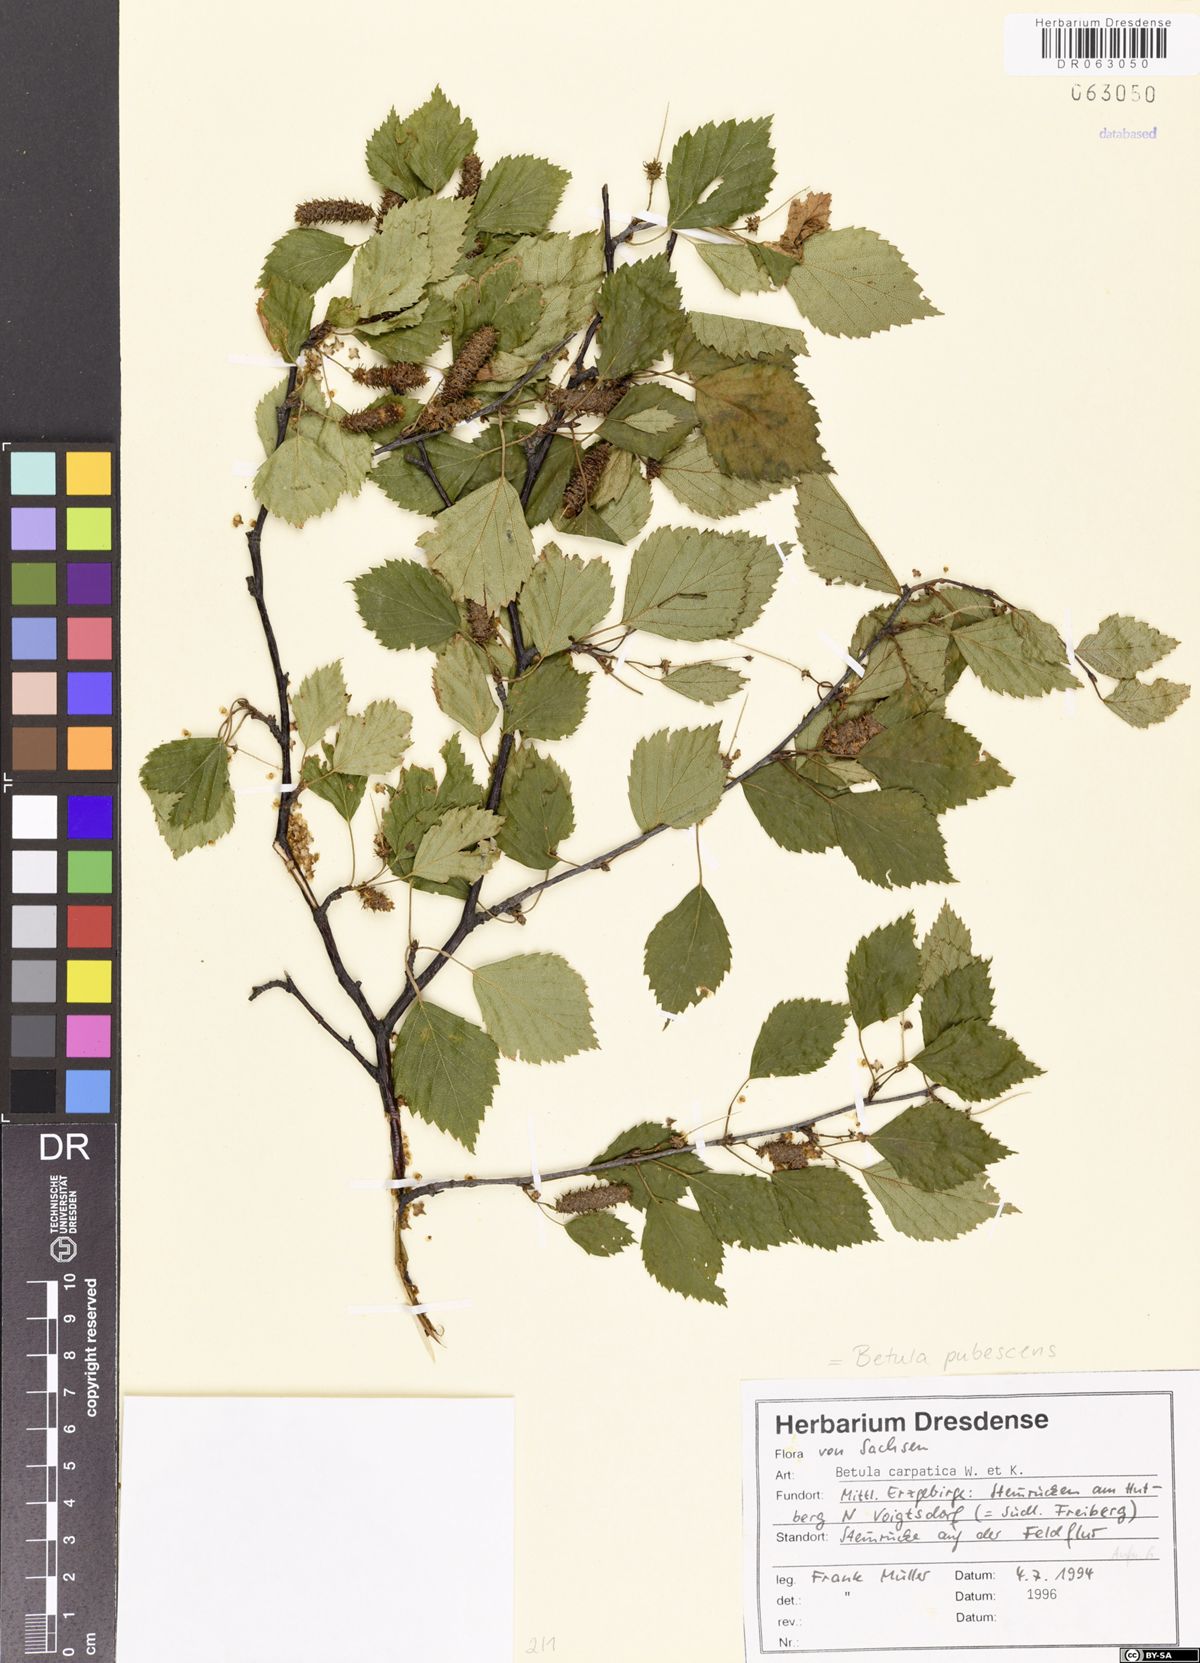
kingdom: Plantae
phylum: Tracheophyta
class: Magnoliopsida
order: Fagales
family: Betulaceae
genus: Betula
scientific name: Betula pubescens
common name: Downy birch
